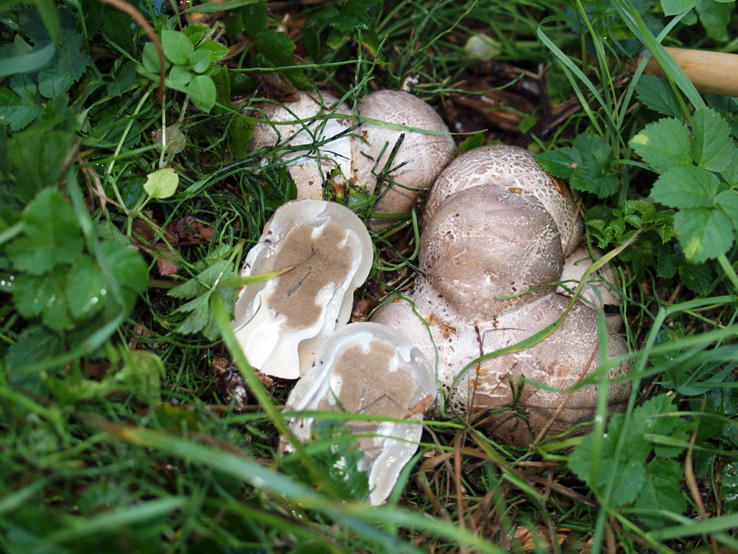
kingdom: Fungi
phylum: Basidiomycota
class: Agaricomycetes
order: Phallales
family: Phallaceae
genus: Clathrus
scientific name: Clathrus archeri
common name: blækspruttesvamp
